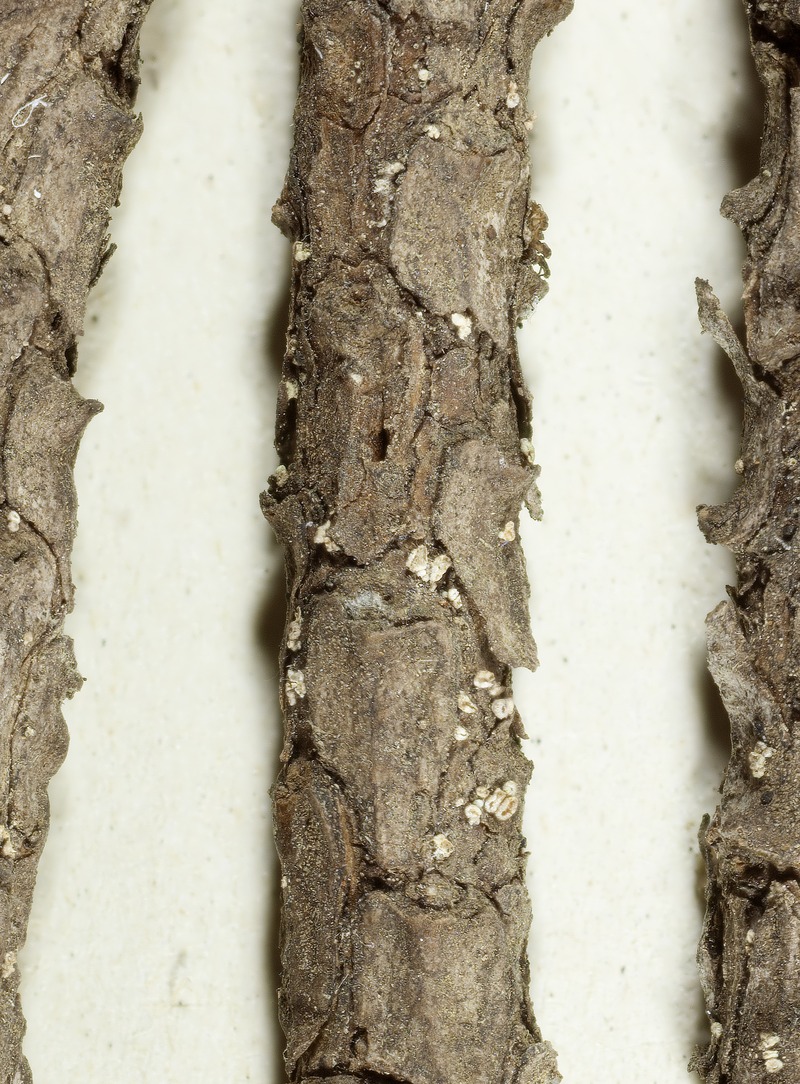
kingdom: Fungi
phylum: Ascomycota
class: Leotiomycetes
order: Helotiales
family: Lachnaceae
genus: Lachnellula
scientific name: Lachnellula ellisiana
